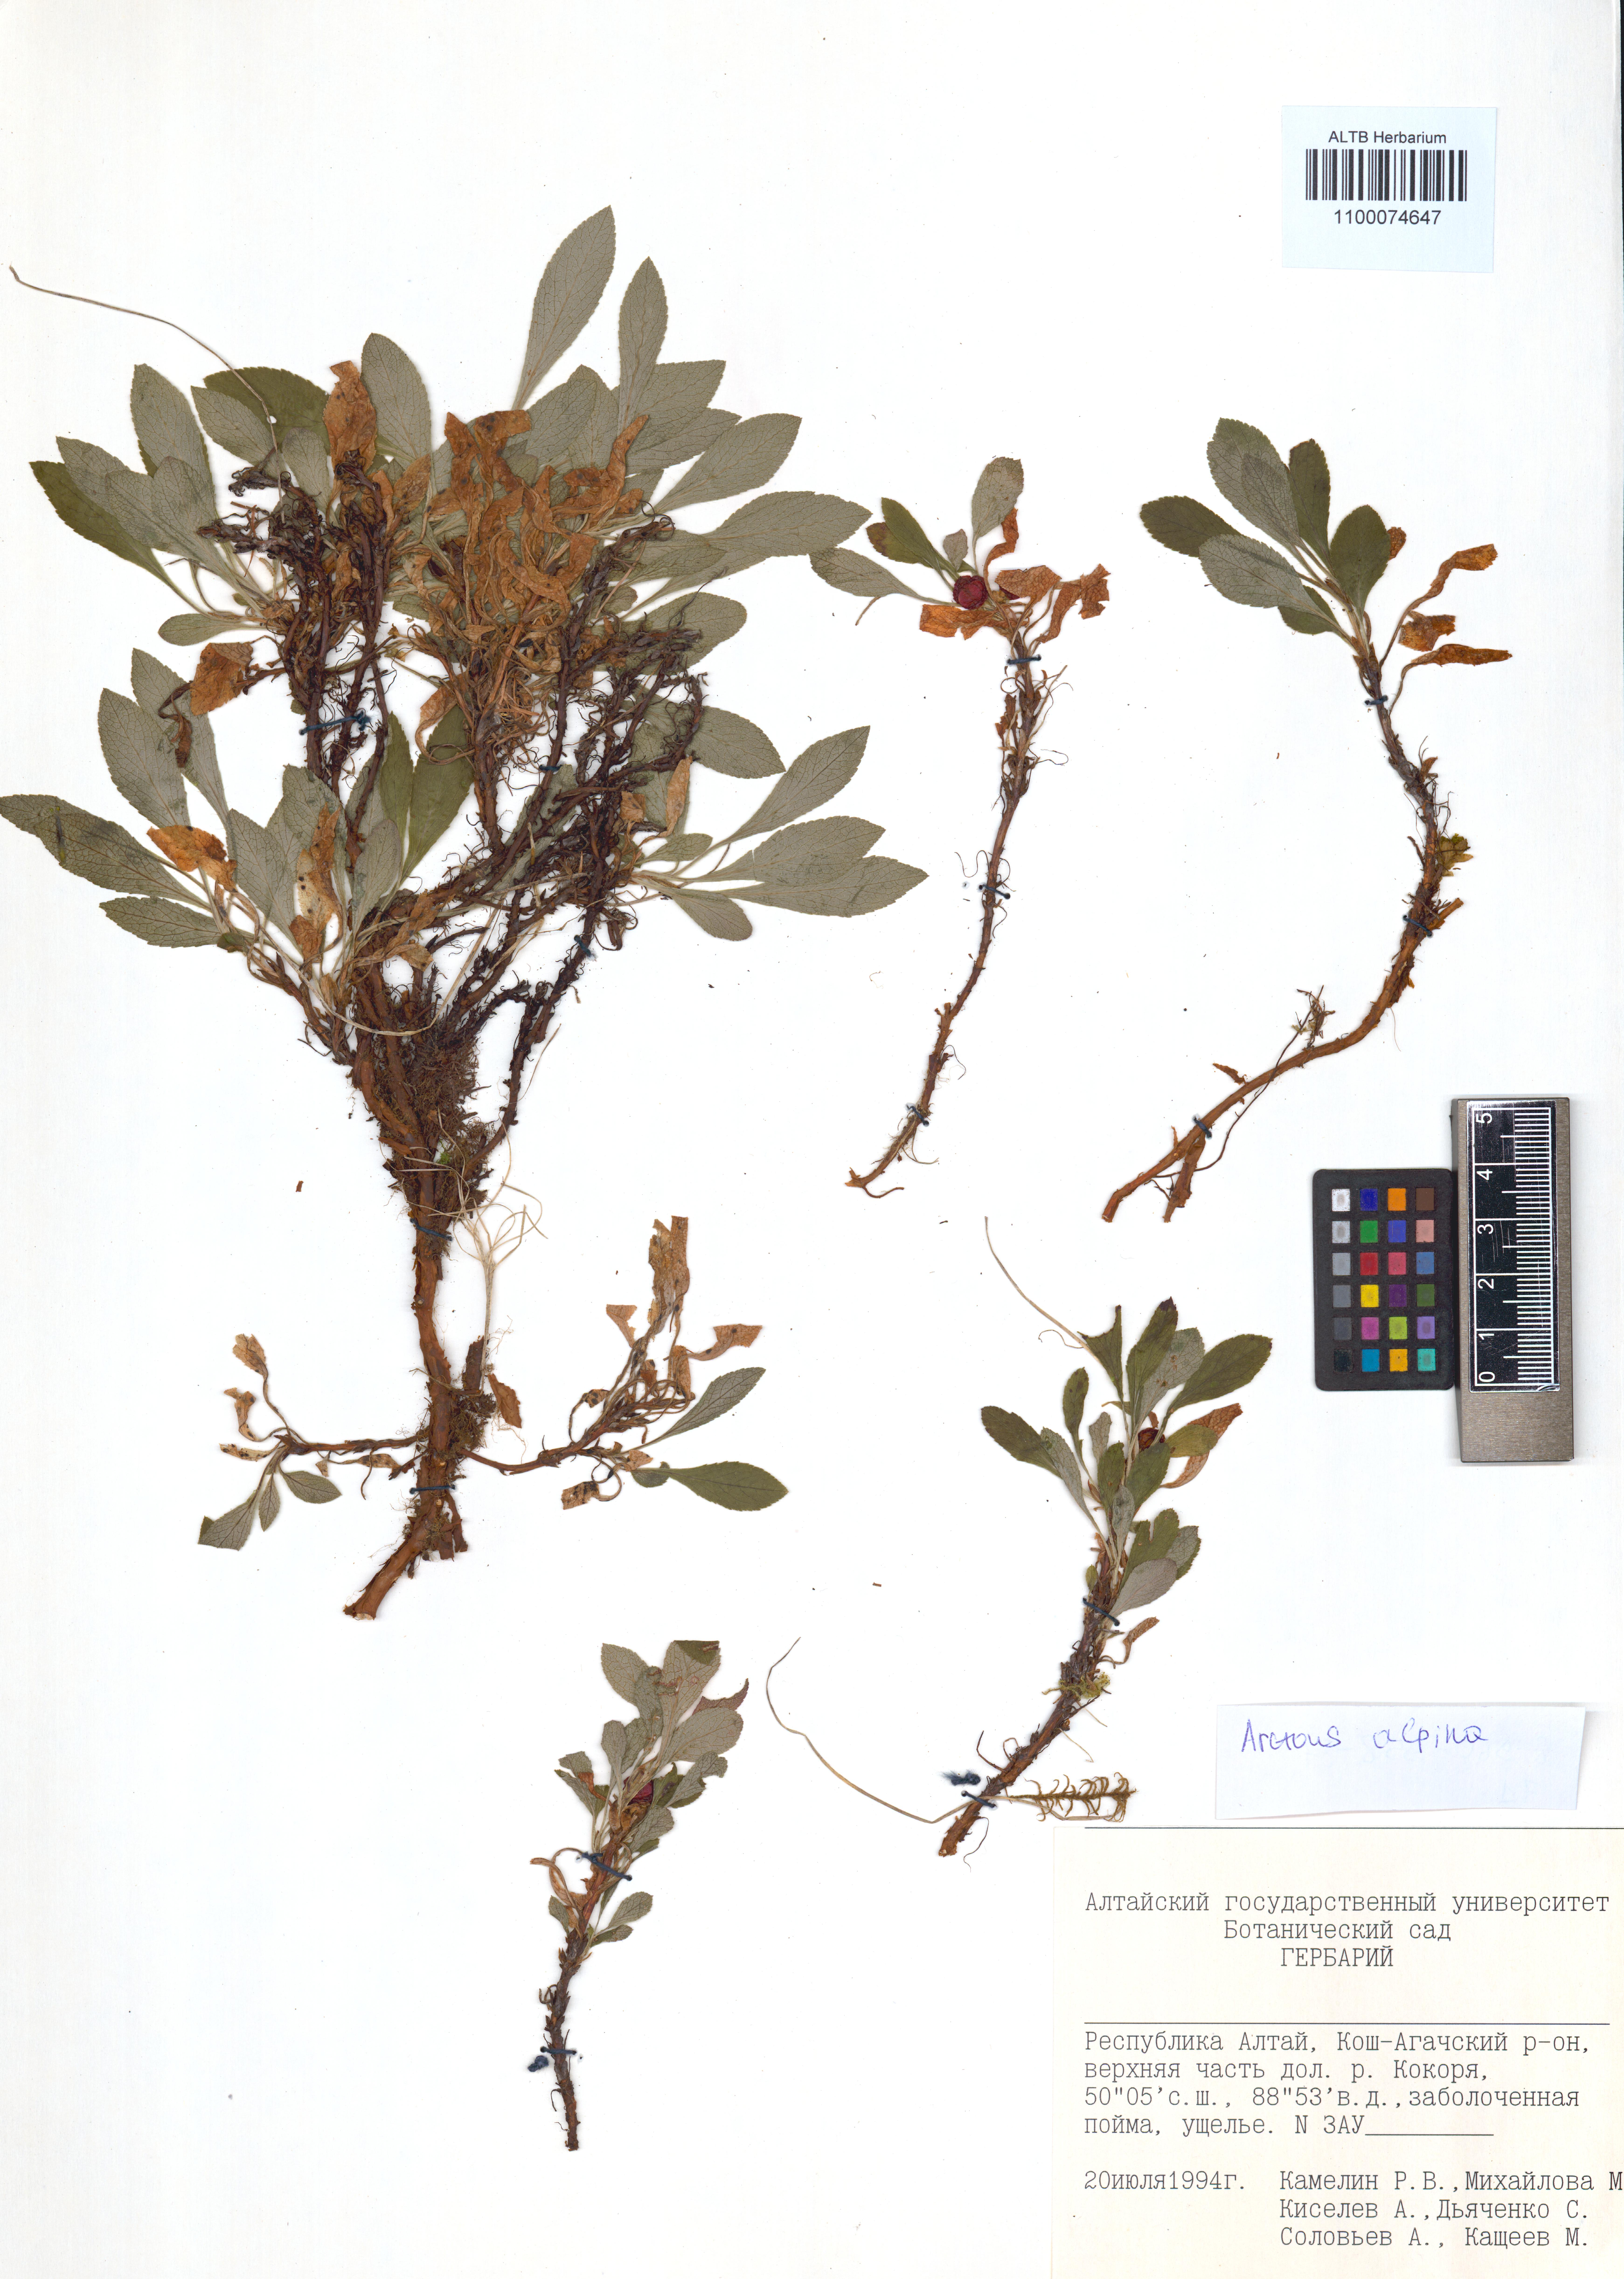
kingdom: Plantae
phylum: Tracheophyta
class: Magnoliopsida
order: Ericales
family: Ericaceae
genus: Arctostaphylos
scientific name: Arctostaphylos alpinus
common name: Alpine bearberry
